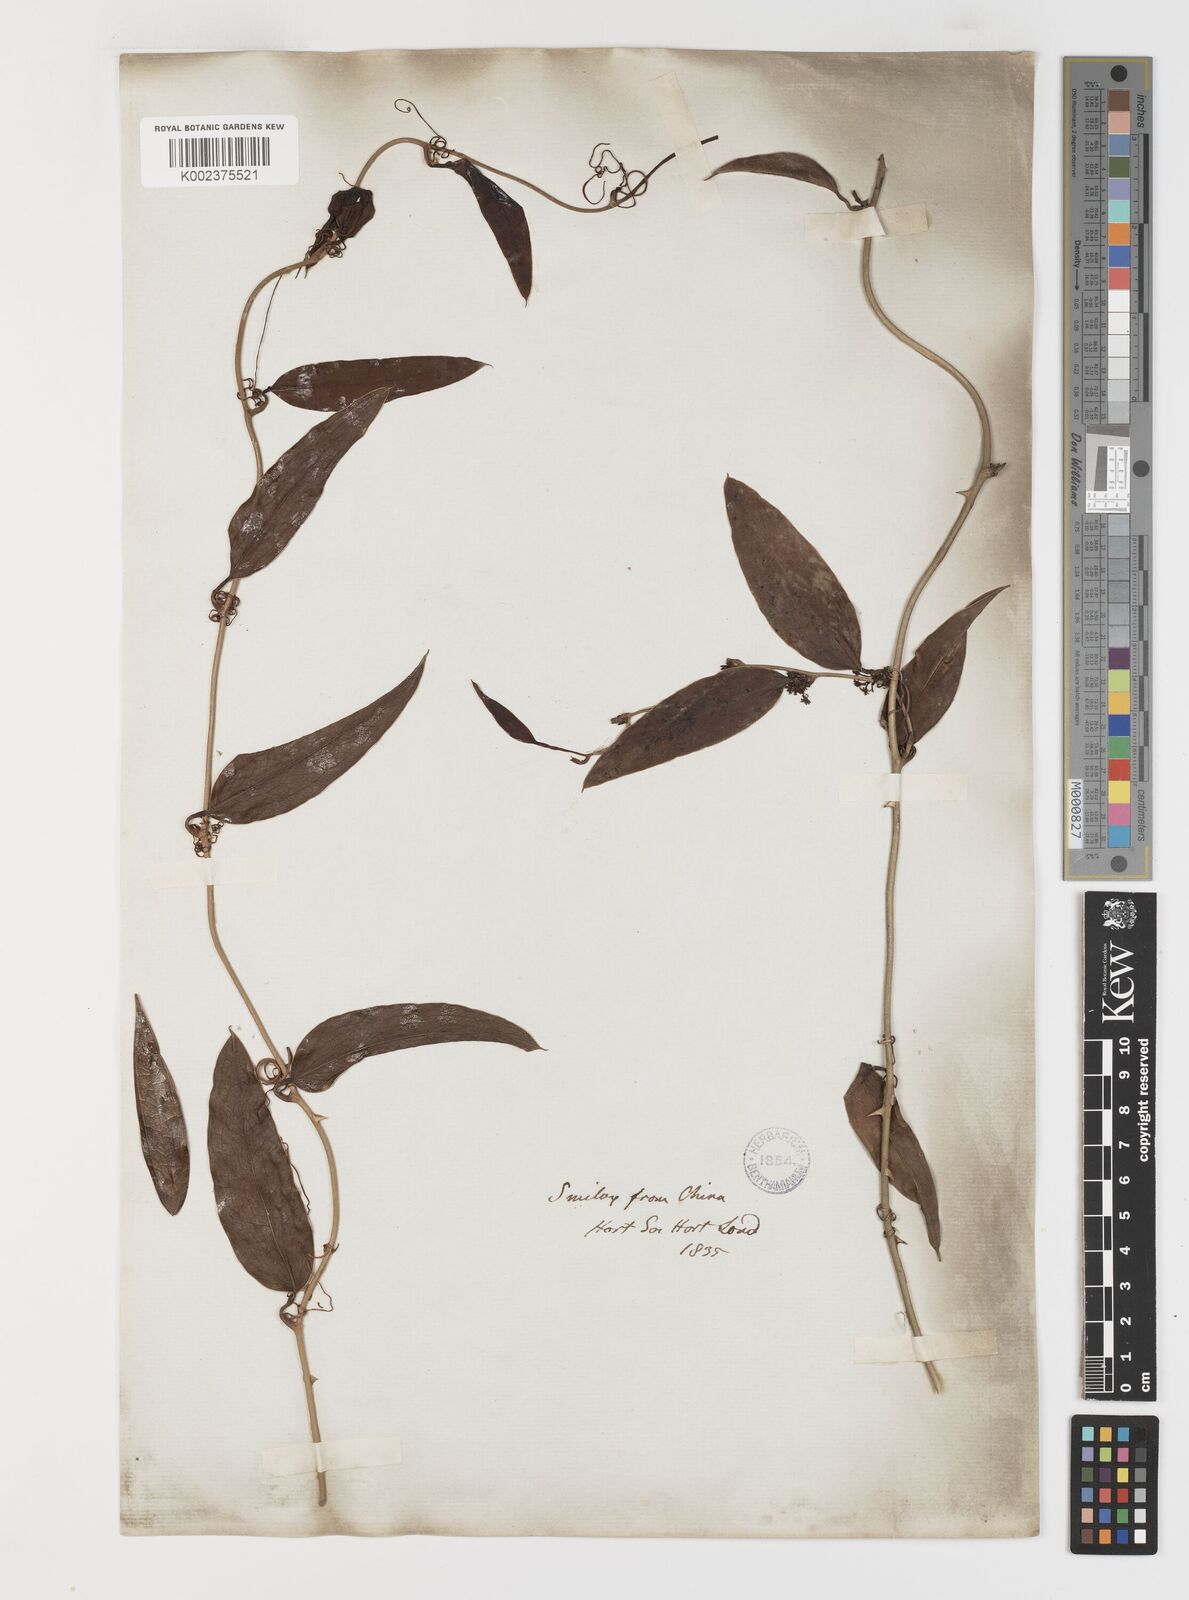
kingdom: Plantae
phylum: Tracheophyta
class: Liliopsida
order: Liliales
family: Smilacaceae
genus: Smilax
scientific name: Smilax glabra
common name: Chinese smilax
